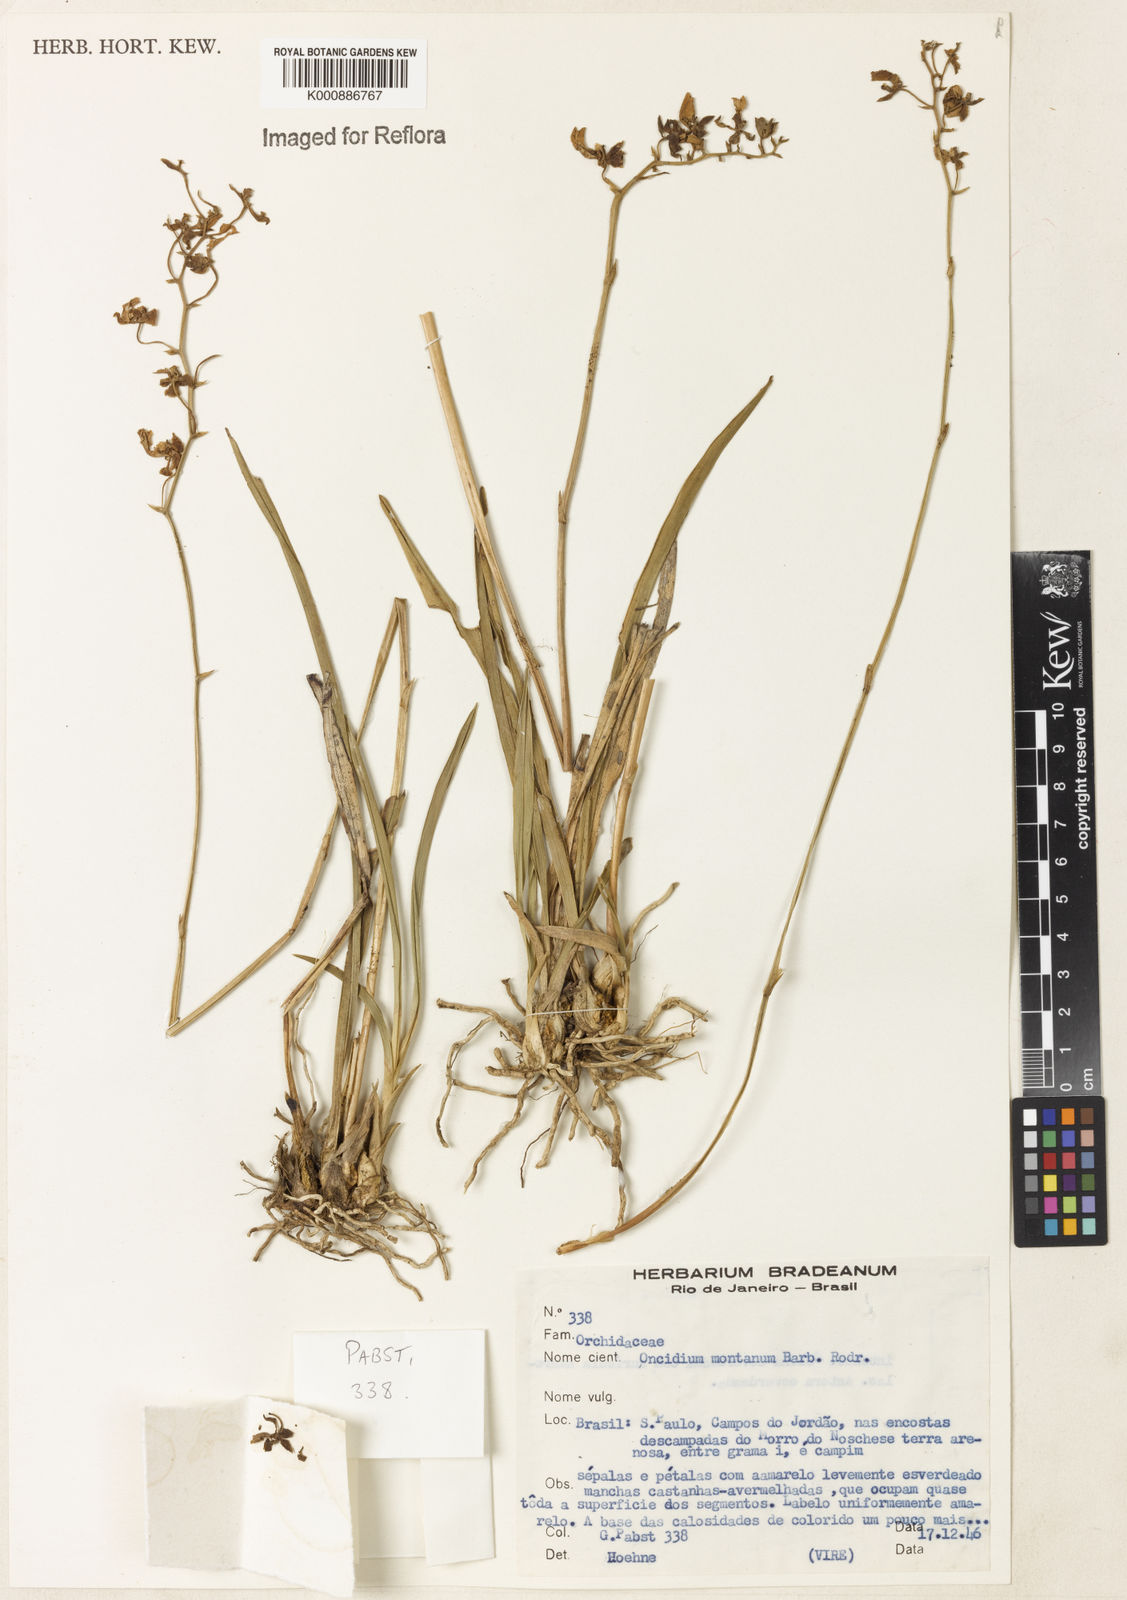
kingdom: Plantae
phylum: Tracheophyta
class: Liliopsida
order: Asparagales
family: Orchidaceae
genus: Gomesa
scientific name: Gomesa barbaceniae
